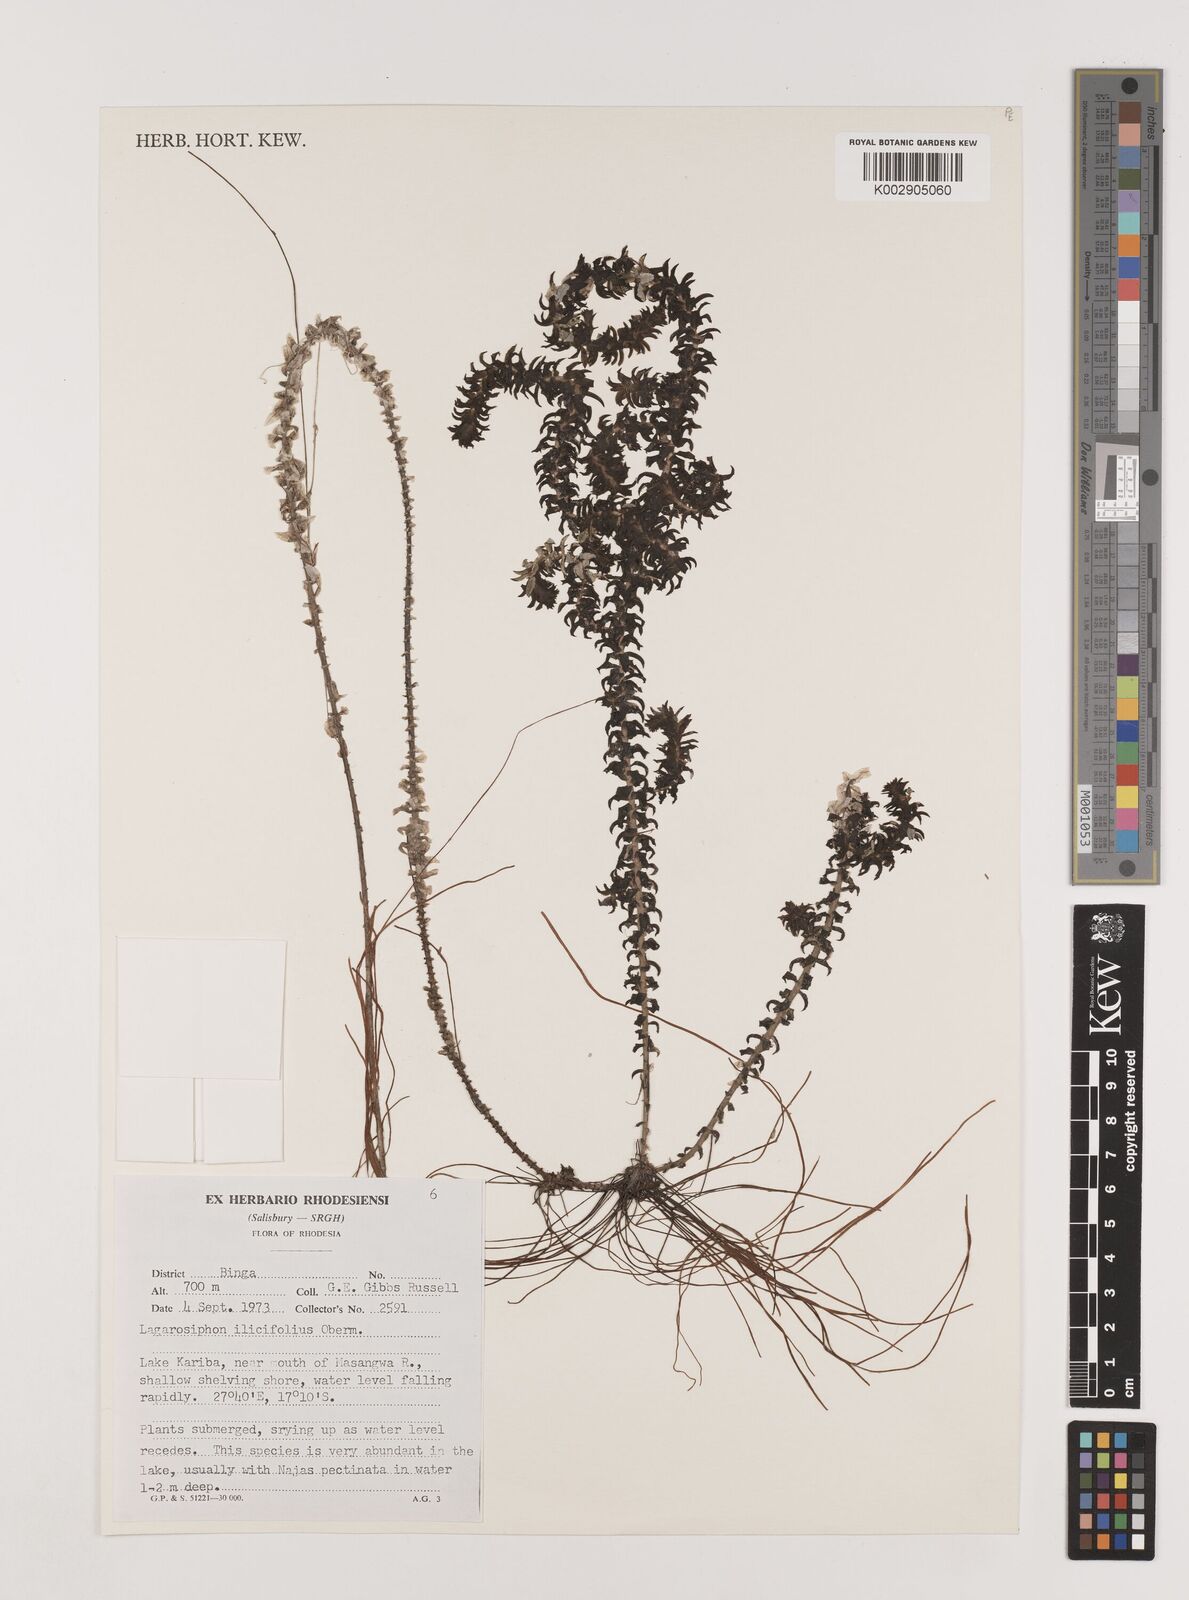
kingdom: Plantae
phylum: Tracheophyta
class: Liliopsida
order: Alismatales
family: Hydrocharitaceae
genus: Lagarosiphon
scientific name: Lagarosiphon ilicifolius
